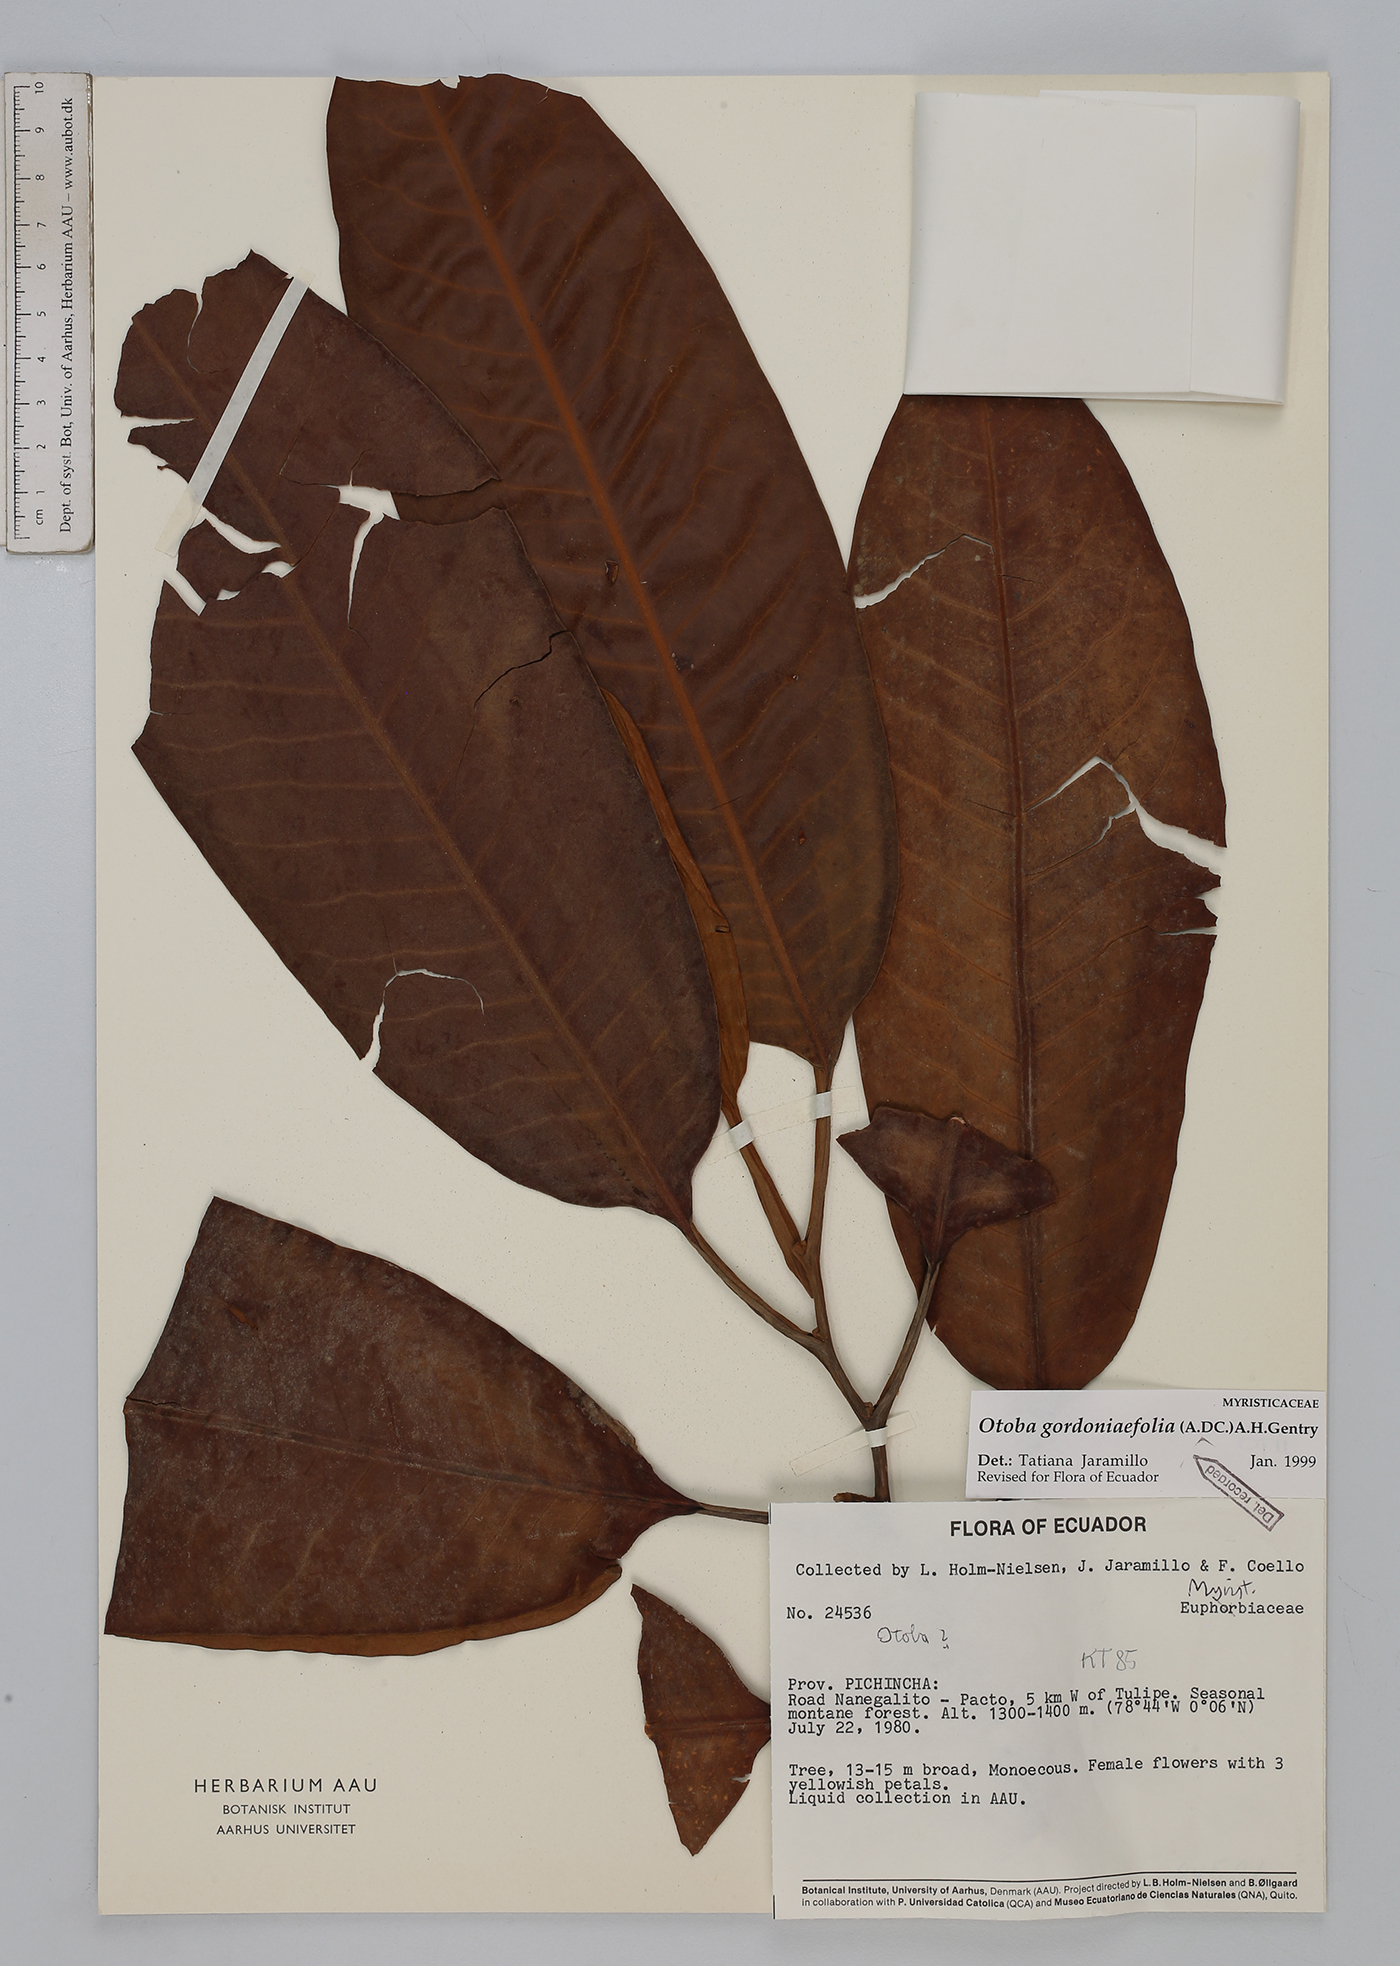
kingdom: Plantae
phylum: Tracheophyta
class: Magnoliopsida
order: Magnoliales
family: Myristicaceae
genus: Otoba
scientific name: Otoba gordoniifolia
